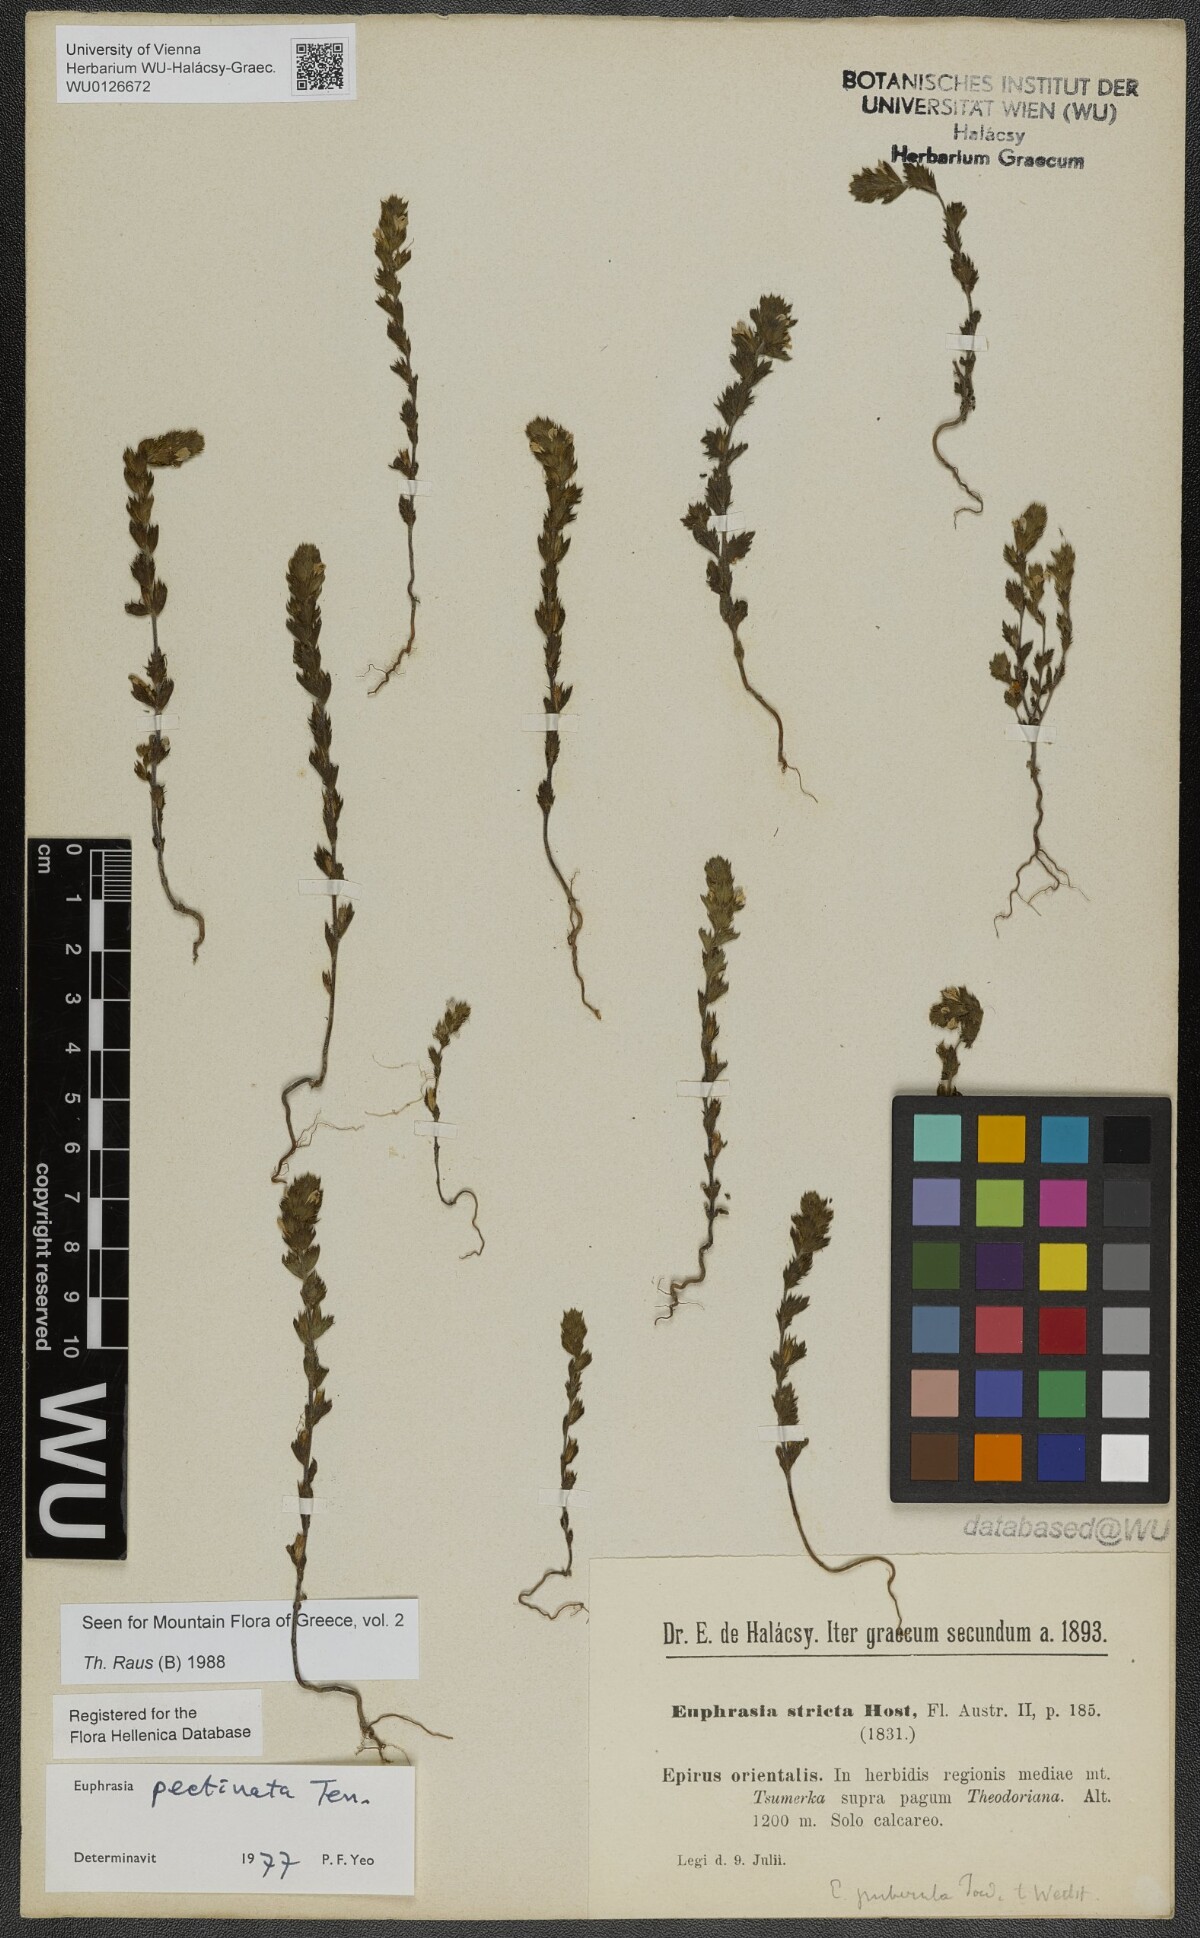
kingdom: Plantae
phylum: Tracheophyta
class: Magnoliopsida
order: Lamiales
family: Orobanchaceae
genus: Euphrasia
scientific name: Euphrasia pectinata
